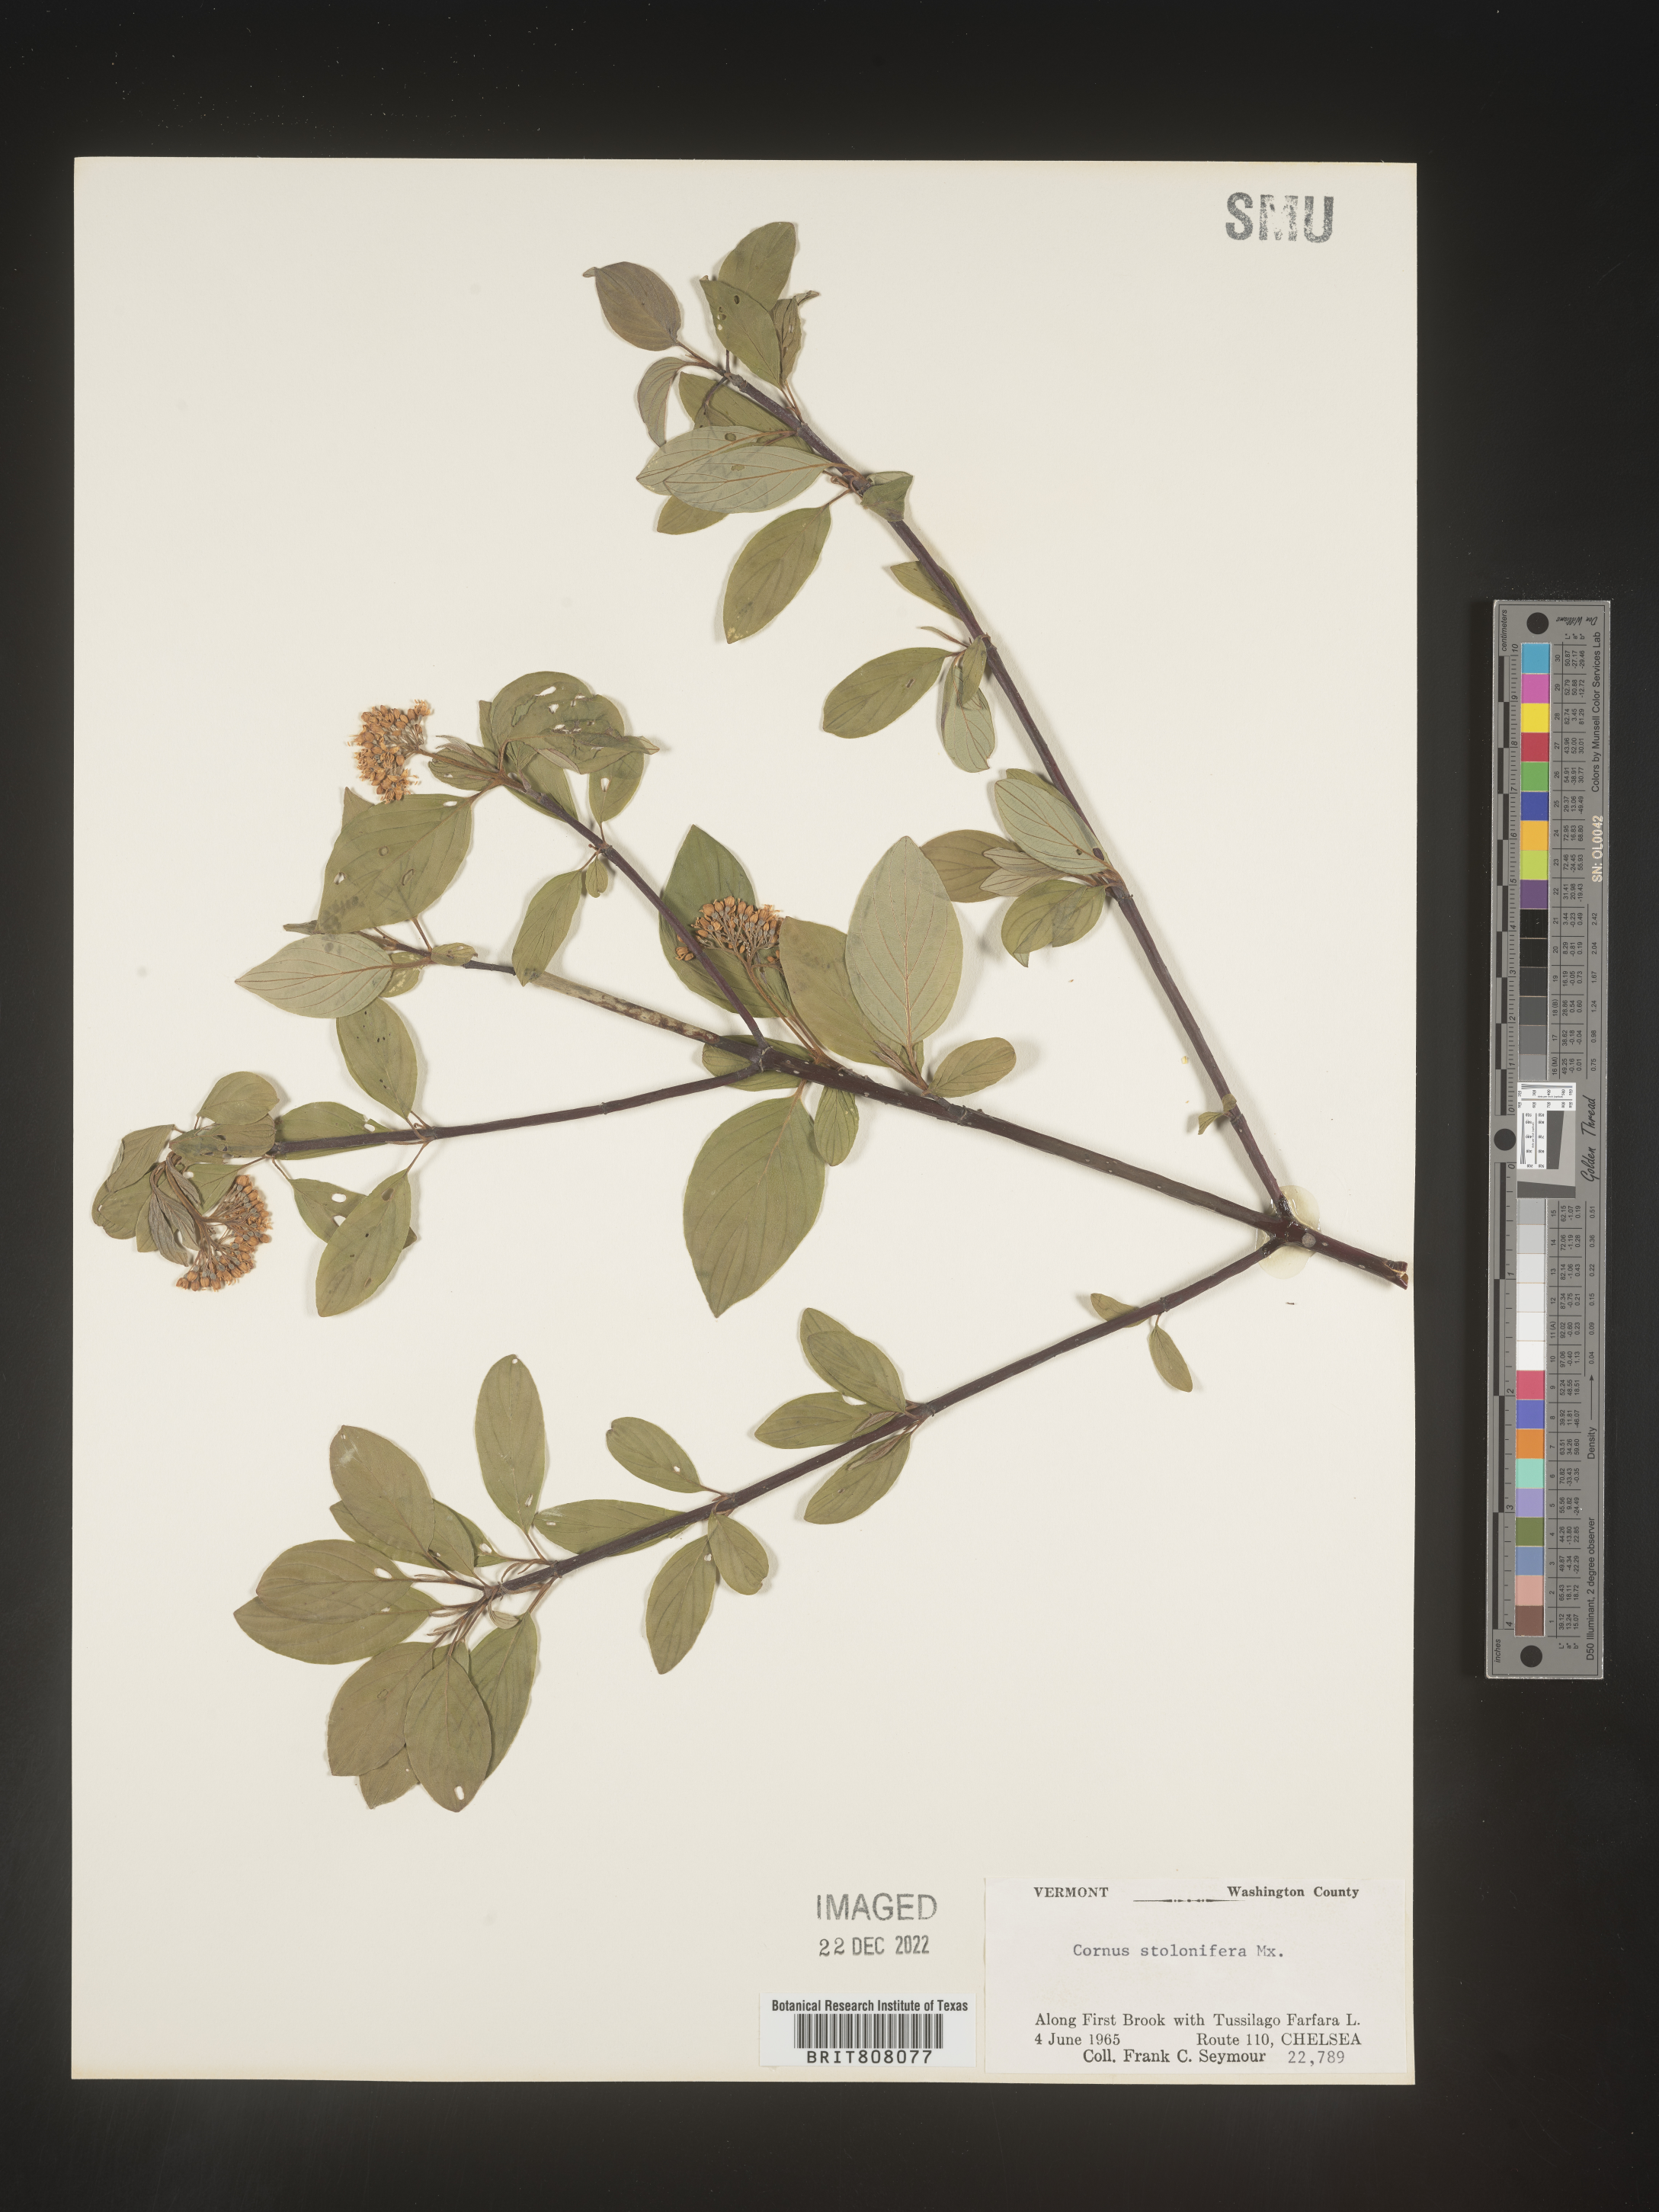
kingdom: Plantae
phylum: Tracheophyta
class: Magnoliopsida
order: Cornales
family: Cornaceae
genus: Cornus
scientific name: Cornus sericea
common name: Red-osier dogwood
